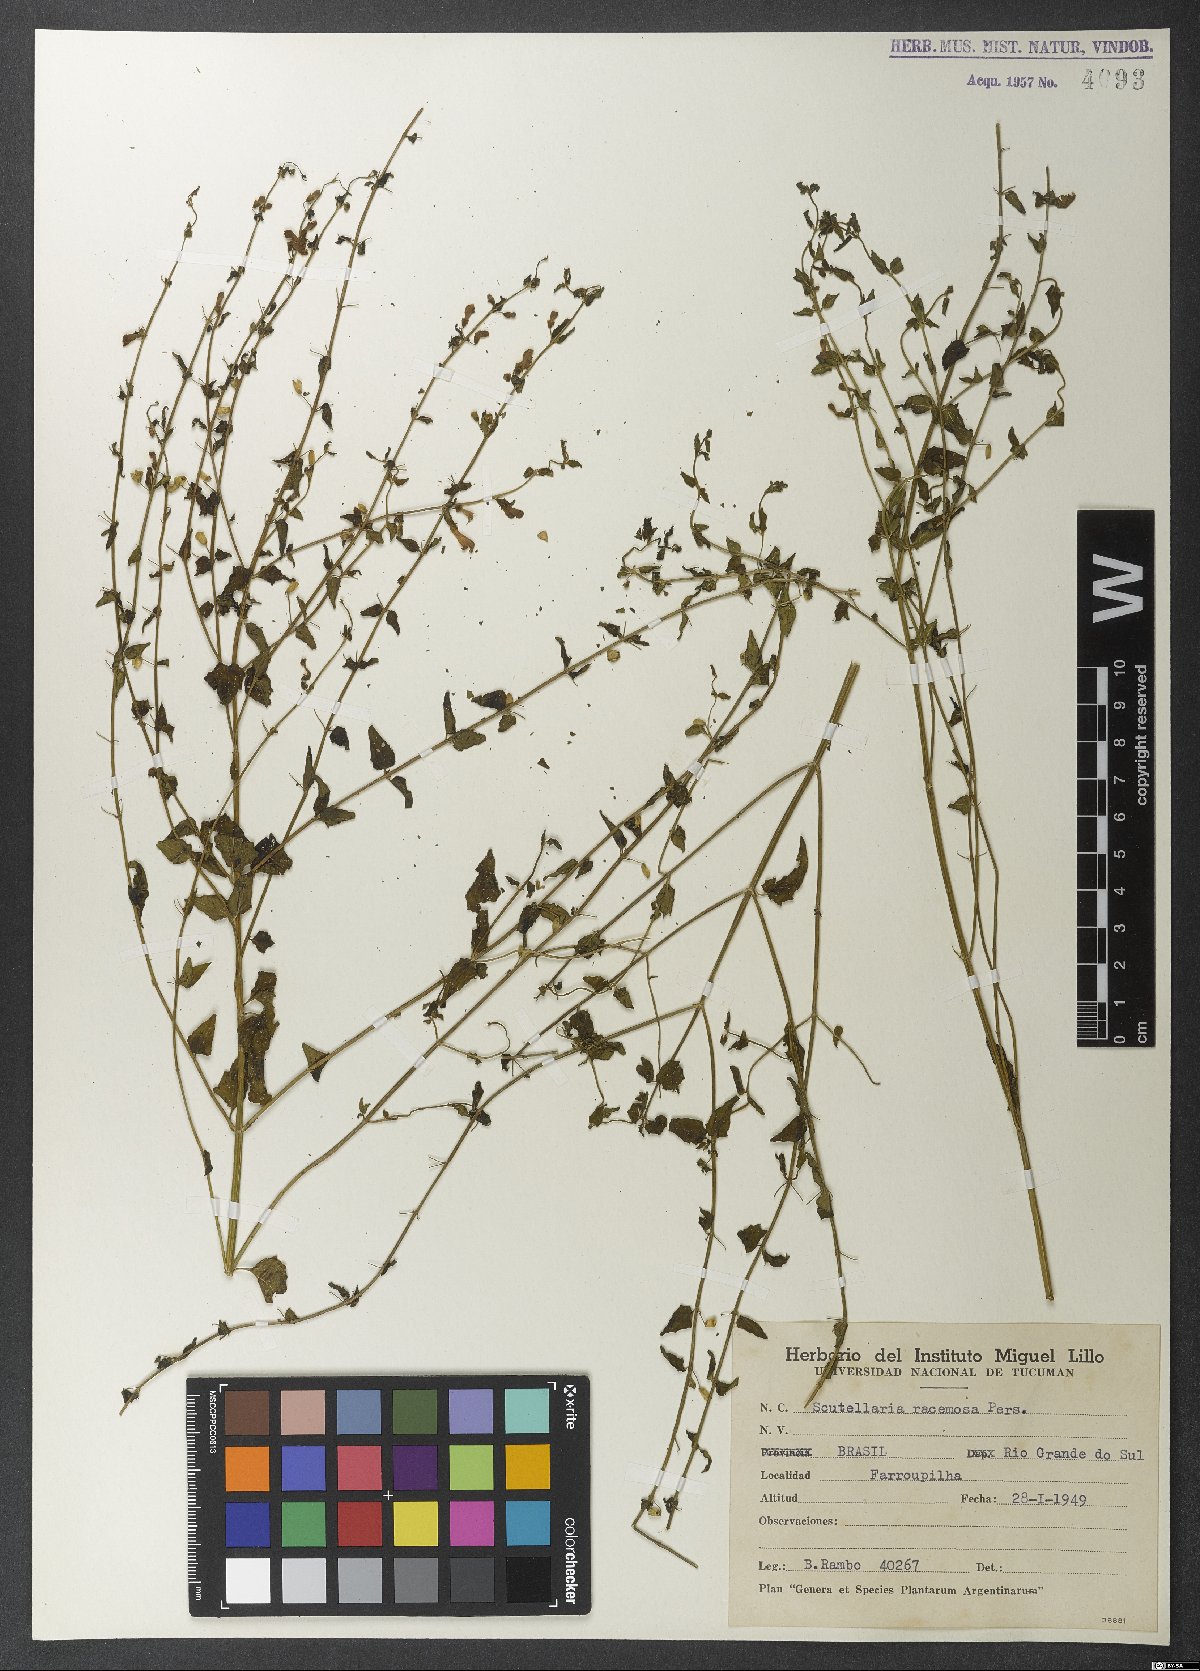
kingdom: Plantae
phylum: Tracheophyta
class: Magnoliopsida
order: Lamiales
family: Lamiaceae
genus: Scutellaria
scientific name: Scutellaria racemosa
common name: South american skullcap
